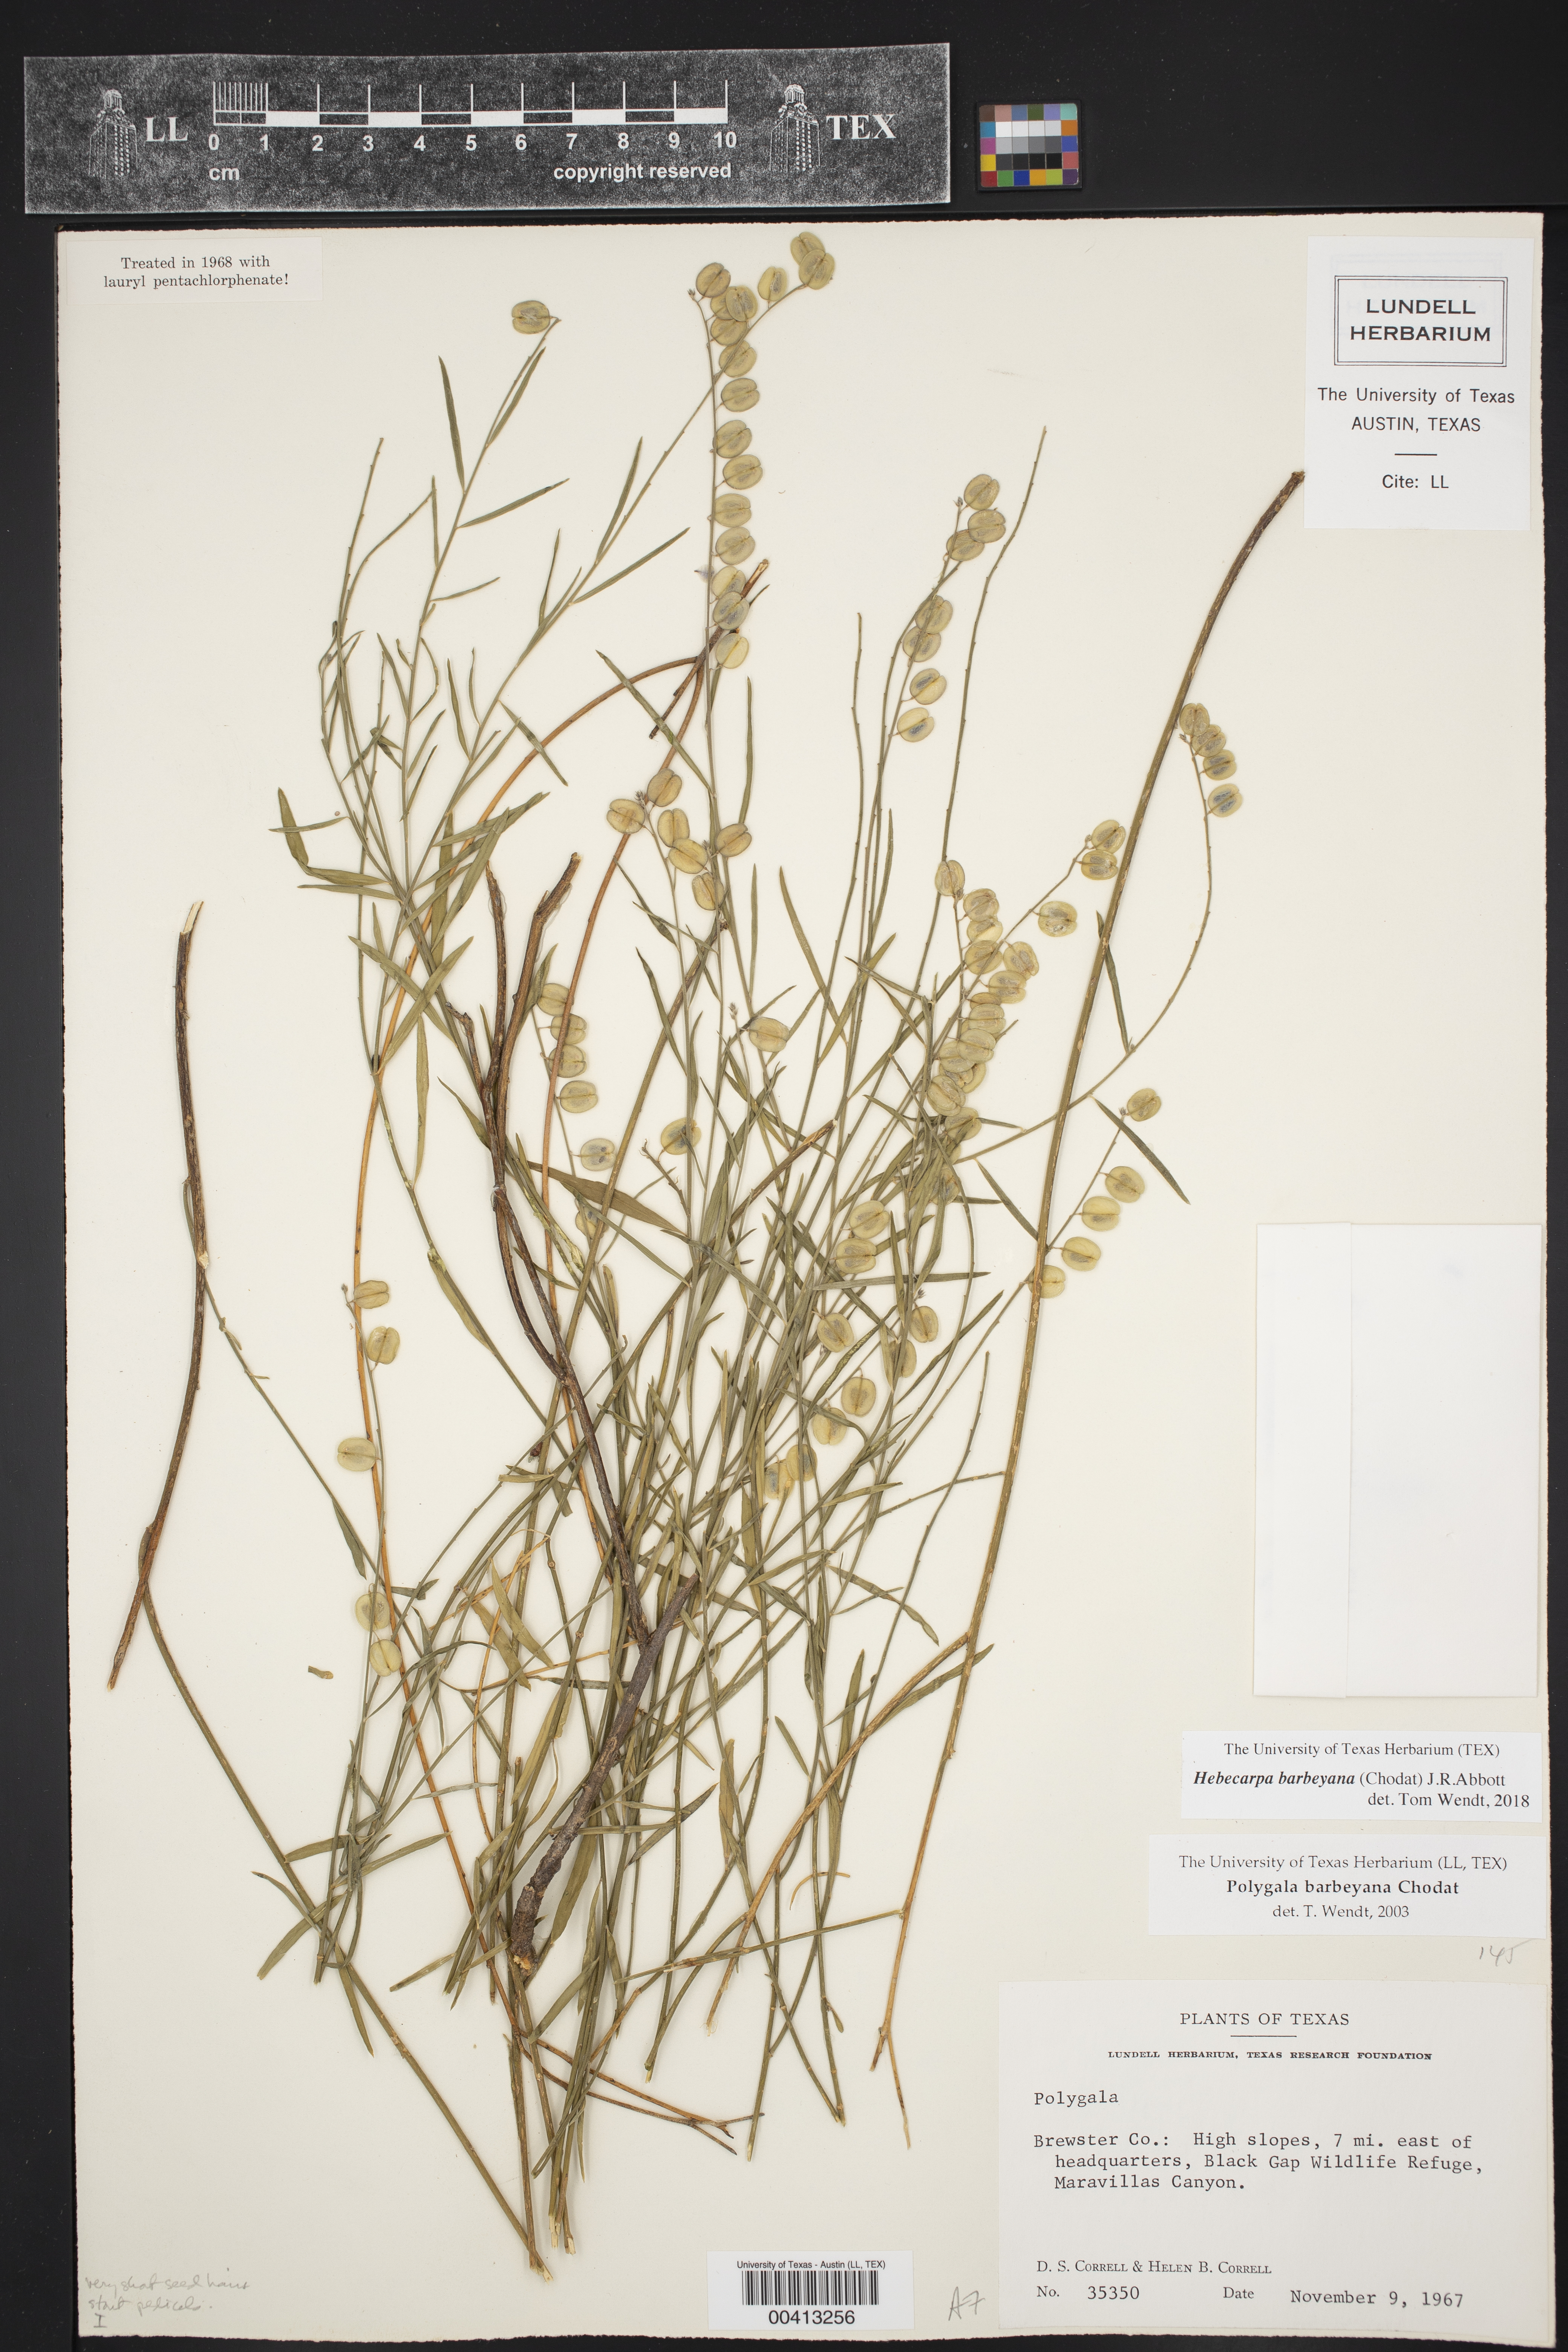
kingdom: Plantae
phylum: Tracheophyta
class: Magnoliopsida
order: Fabales
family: Polygalaceae
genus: Hebecarpa
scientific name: Hebecarpa barbeyana
